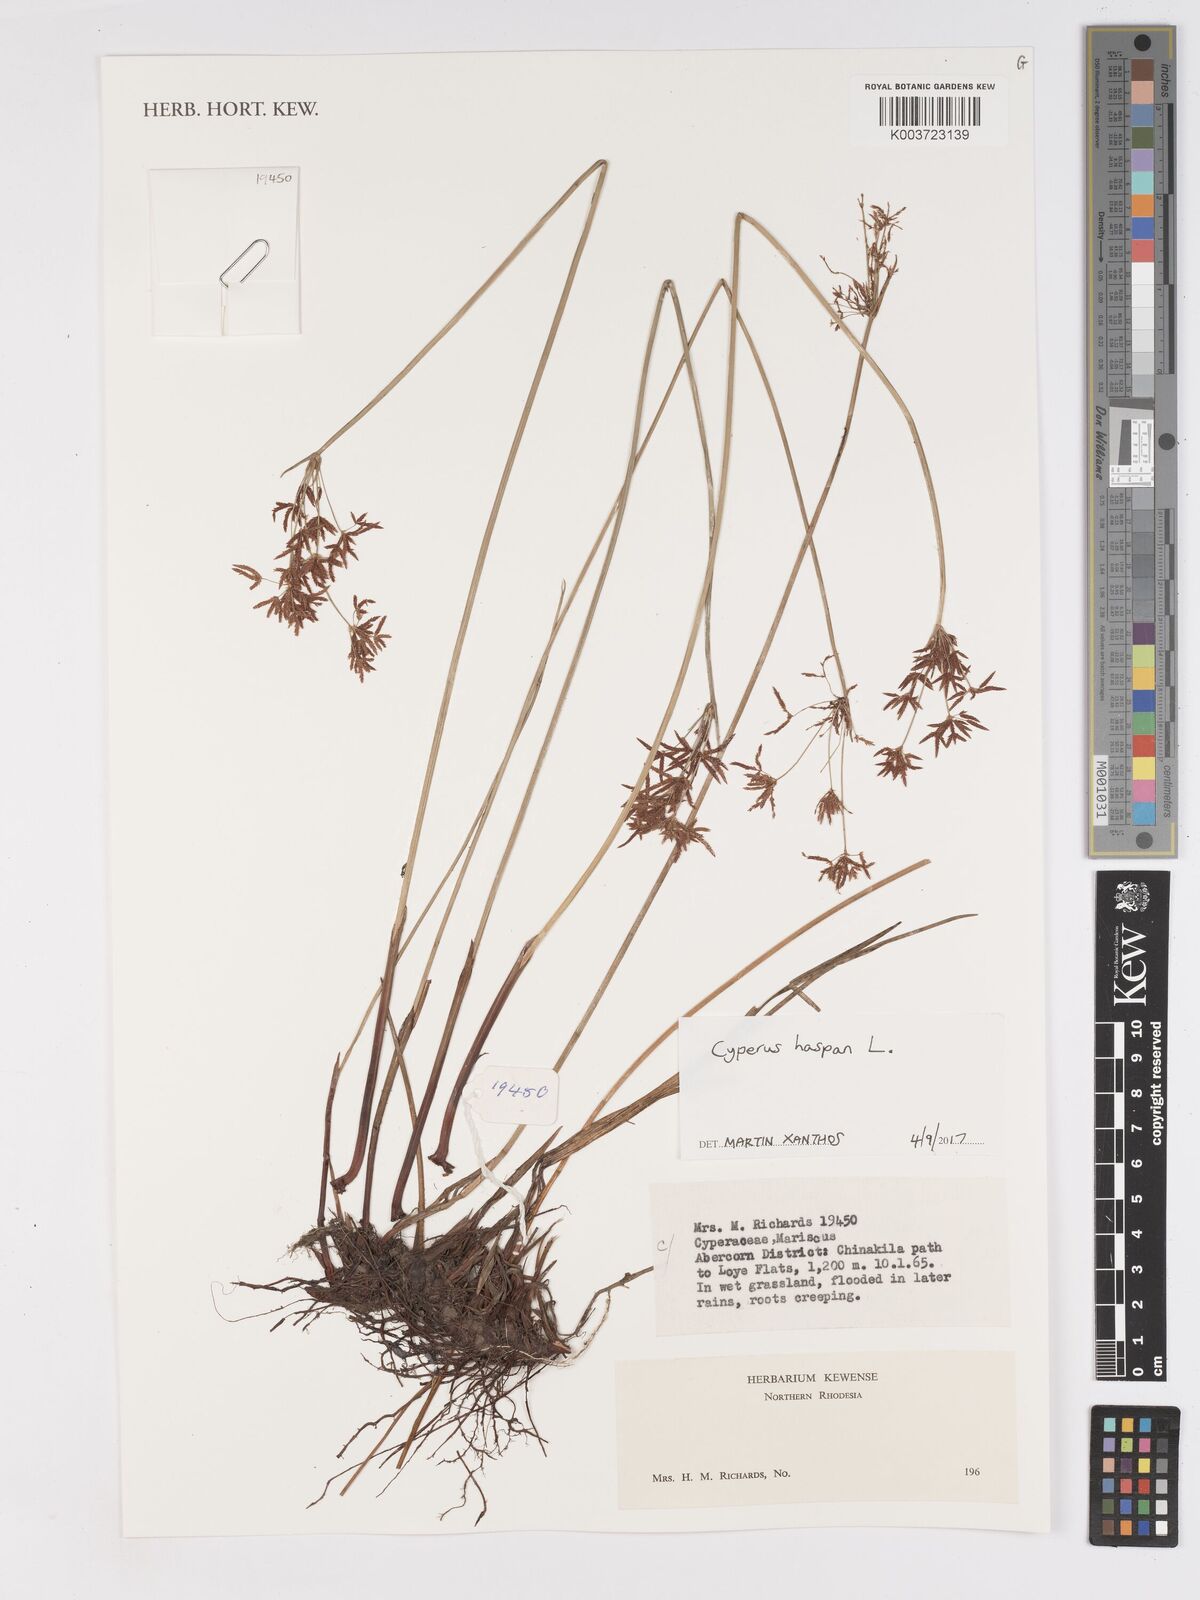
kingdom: Plantae
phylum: Tracheophyta
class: Liliopsida
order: Poales
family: Cyperaceae
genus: Cyperus
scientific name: Cyperus haspan
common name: Haspan flatsedge
